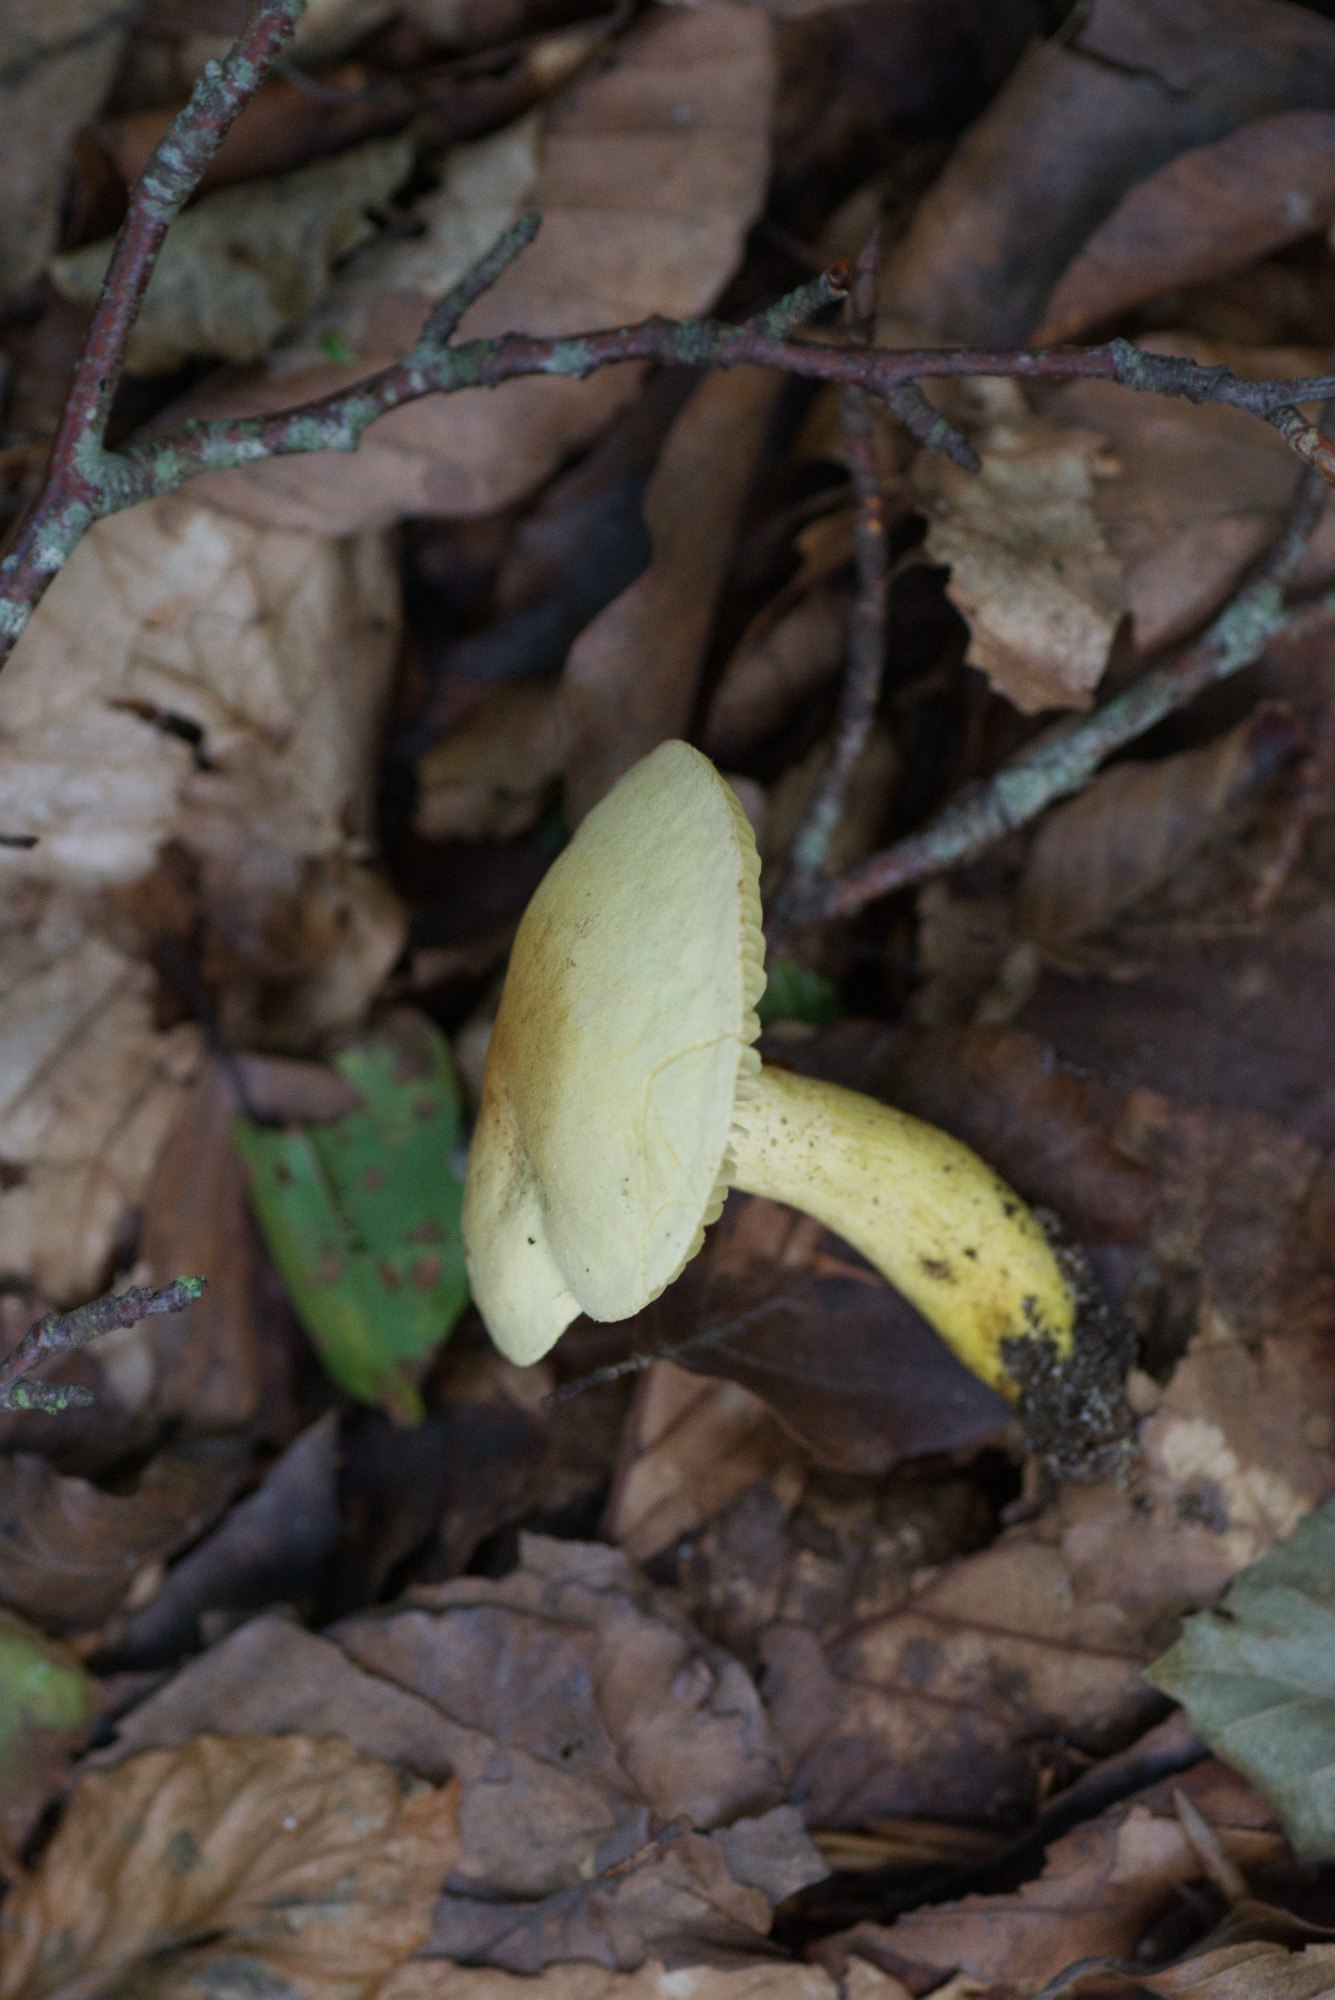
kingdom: Fungi
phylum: Basidiomycota
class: Agaricomycetes
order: Agaricales
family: Tricholomataceae
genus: Tricholoma
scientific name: Tricholoma sulphureum
